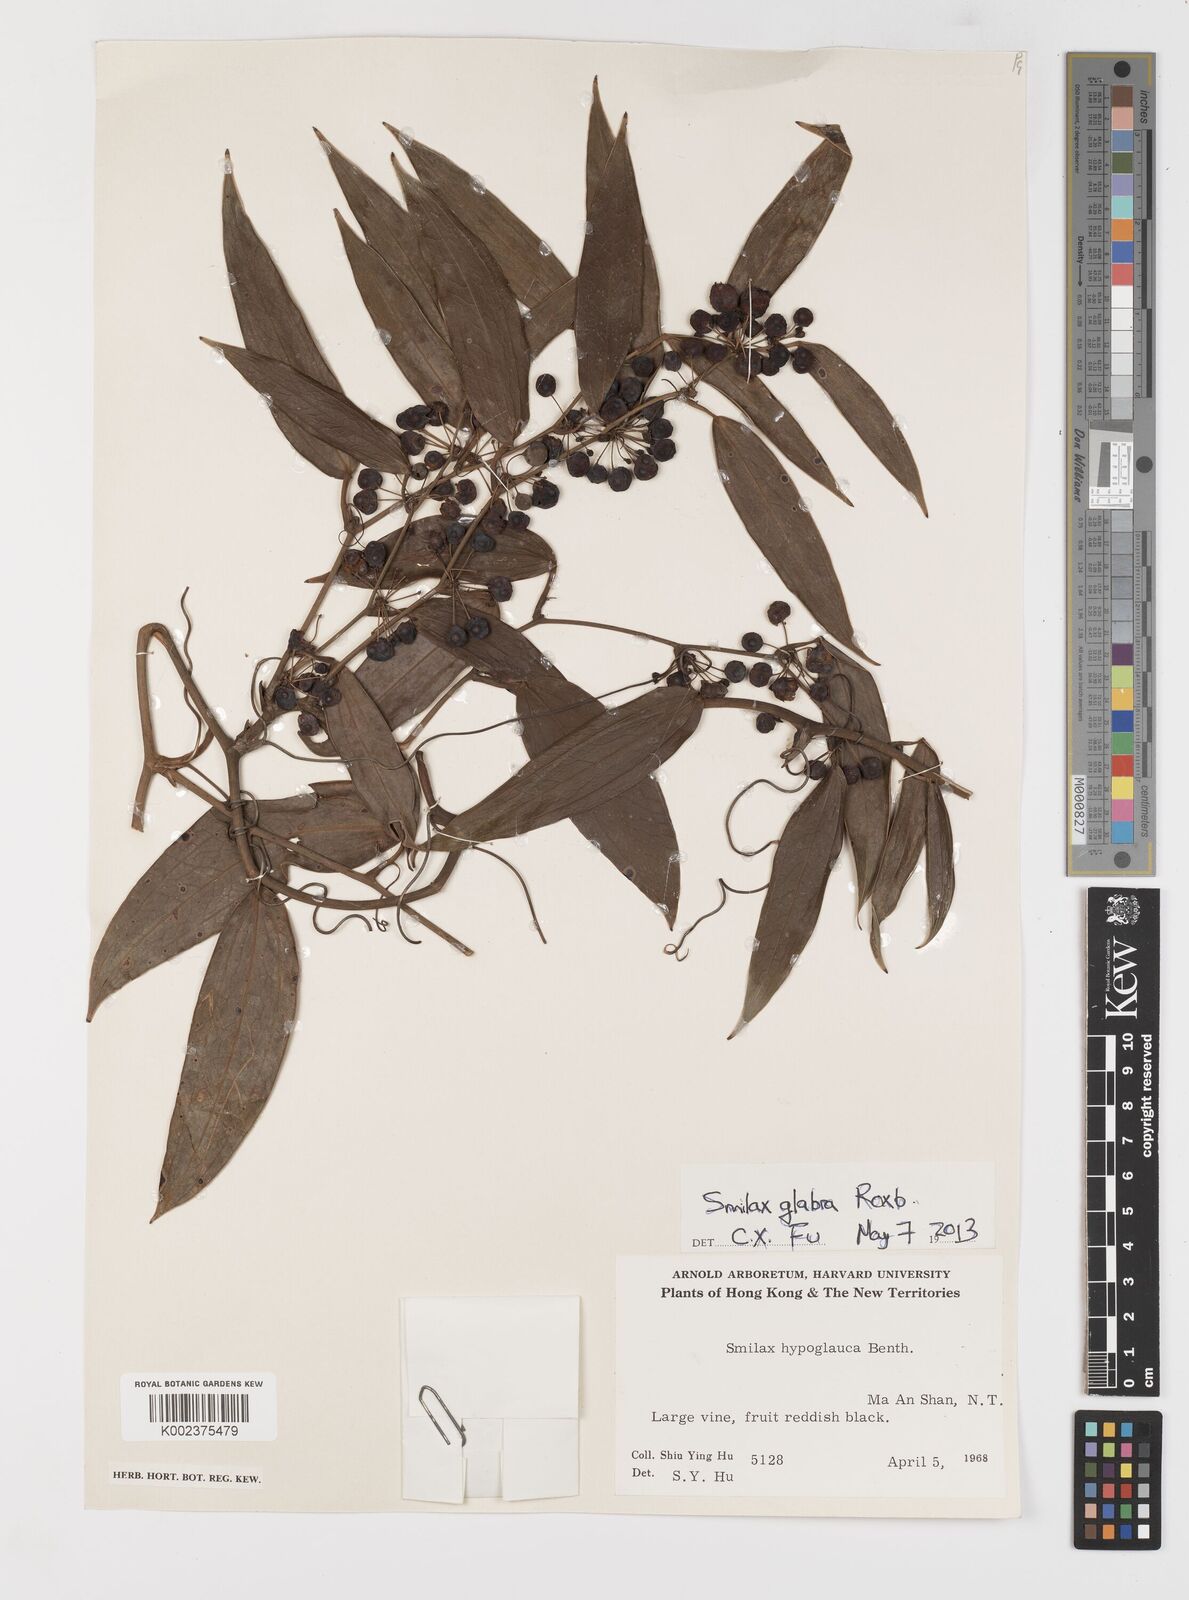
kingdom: Plantae
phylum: Tracheophyta
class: Liliopsida
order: Liliales
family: Smilacaceae
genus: Smilax
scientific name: Smilax glabra
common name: Chinese smilax
